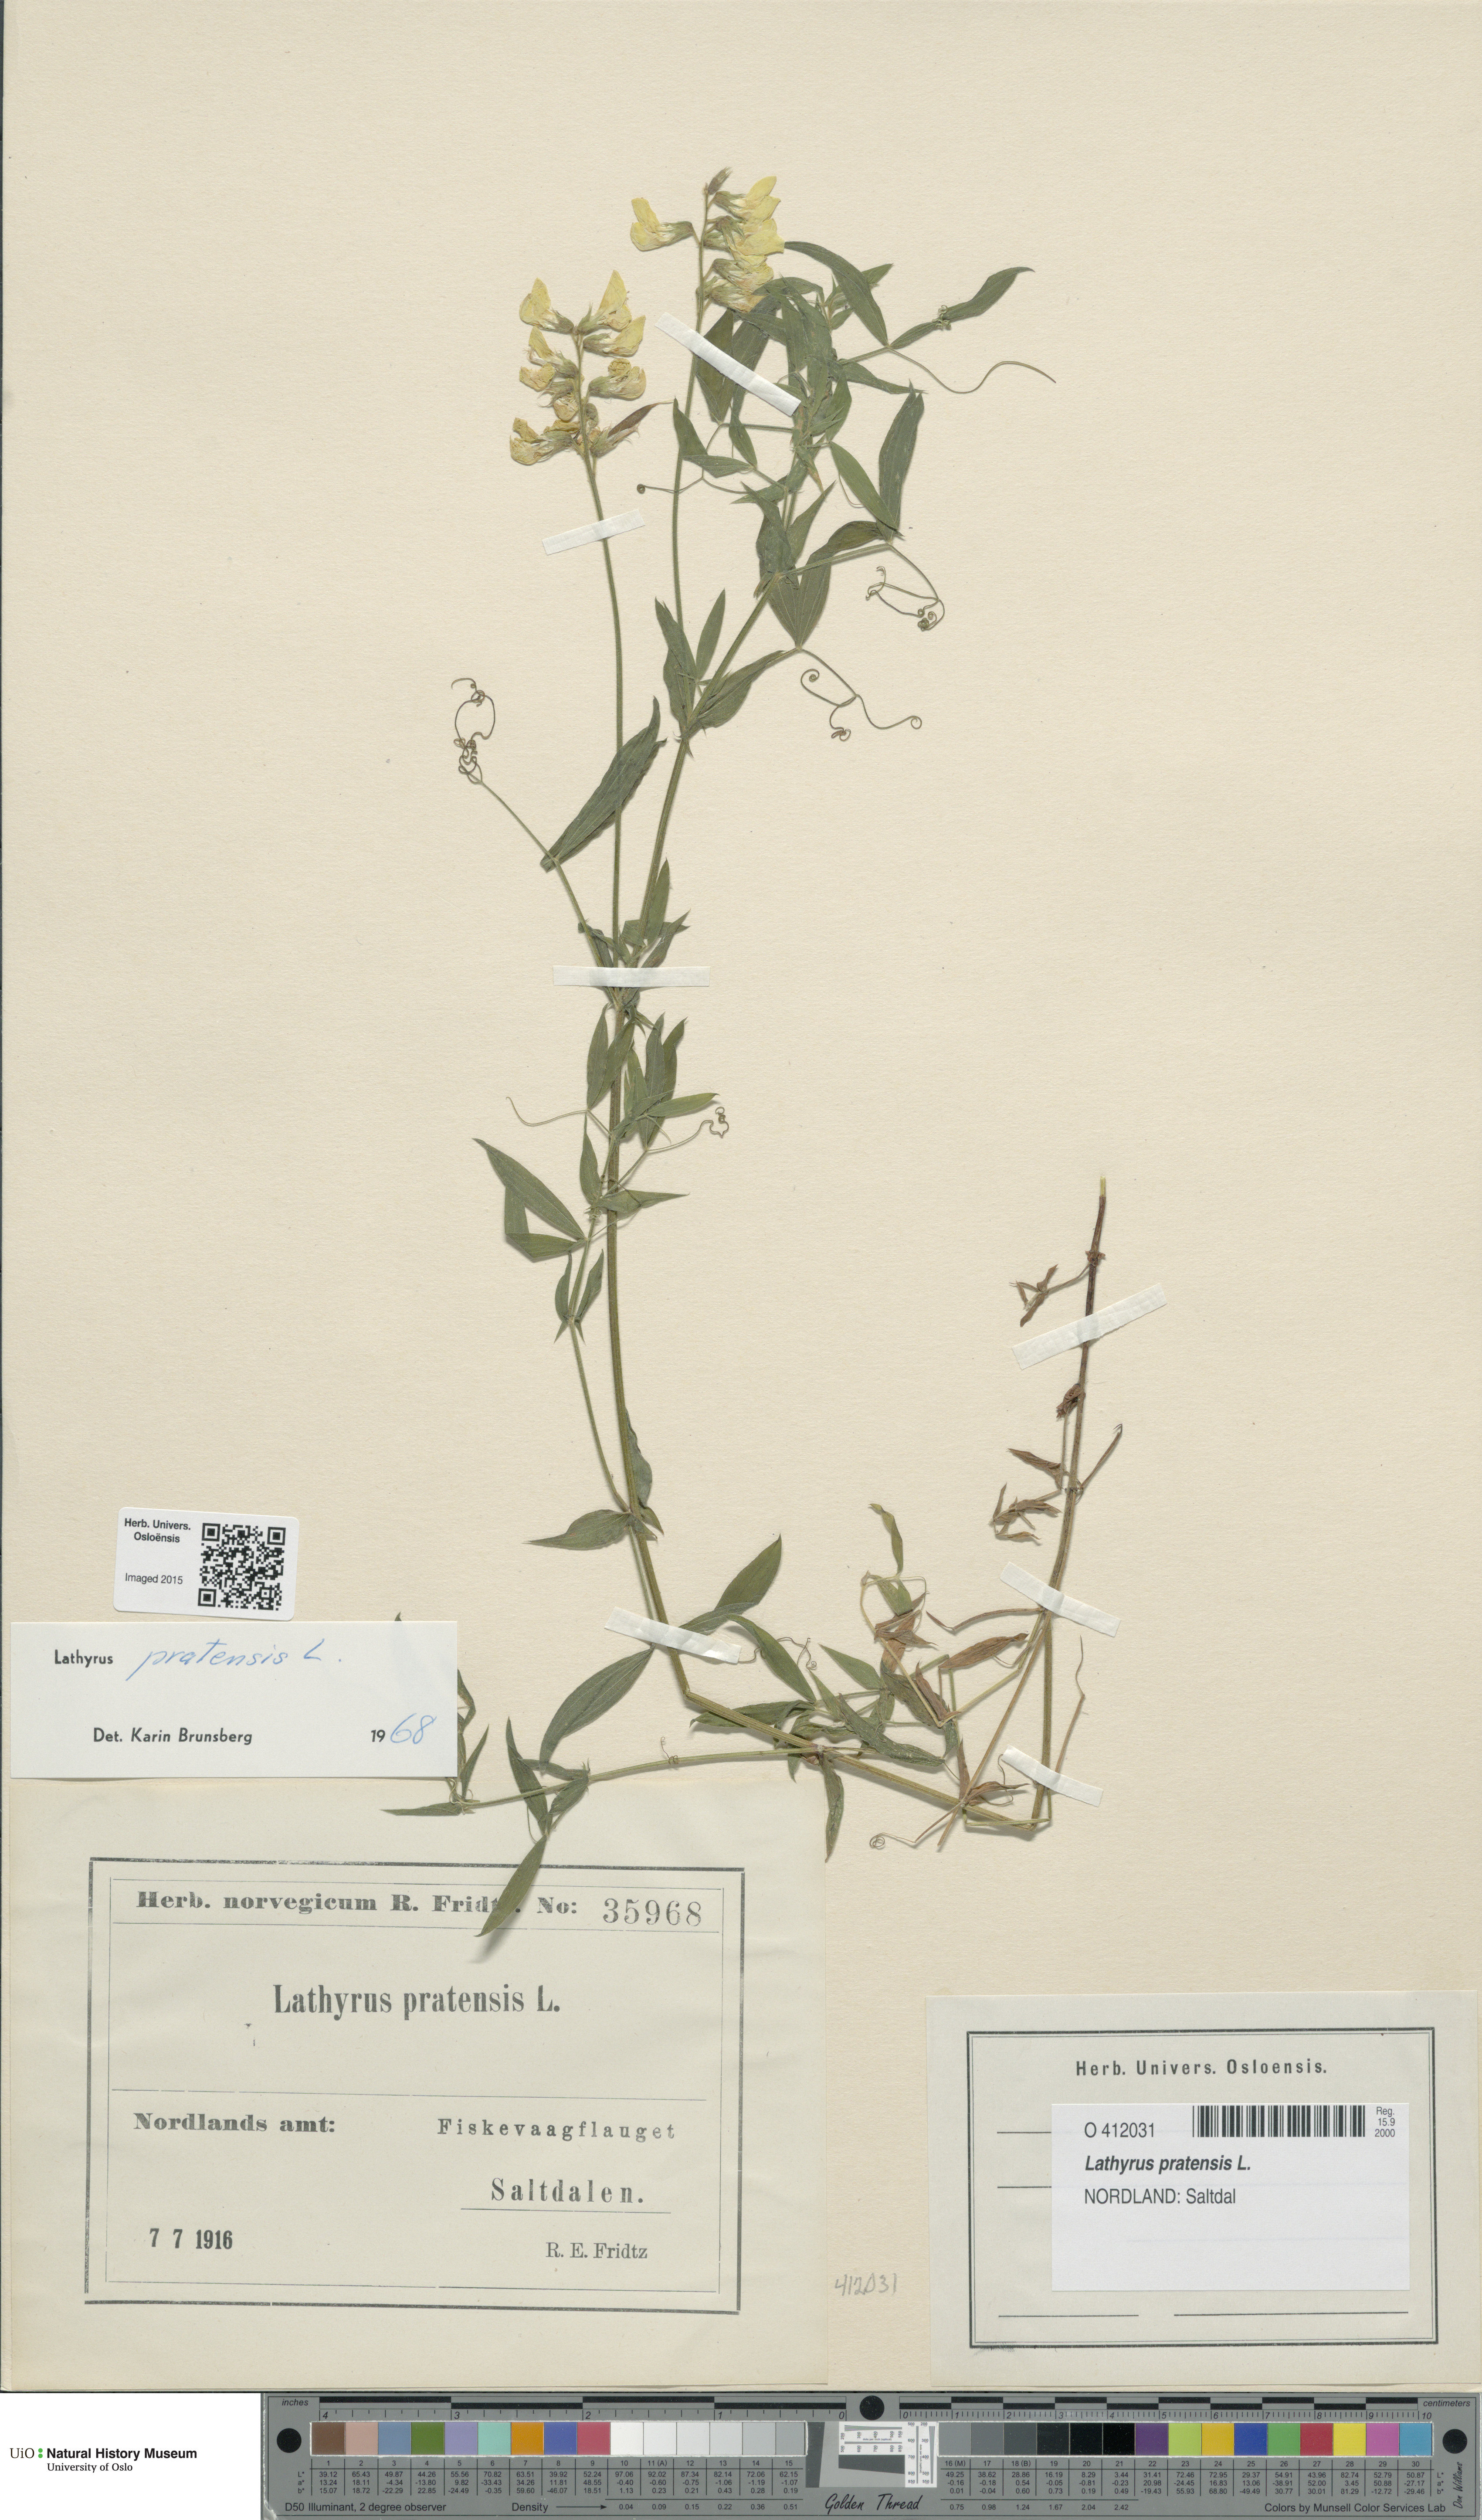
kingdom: Plantae
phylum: Tracheophyta
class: Magnoliopsida
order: Fabales
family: Fabaceae
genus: Lathyrus
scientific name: Lathyrus pratensis
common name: Meadow vetchling
